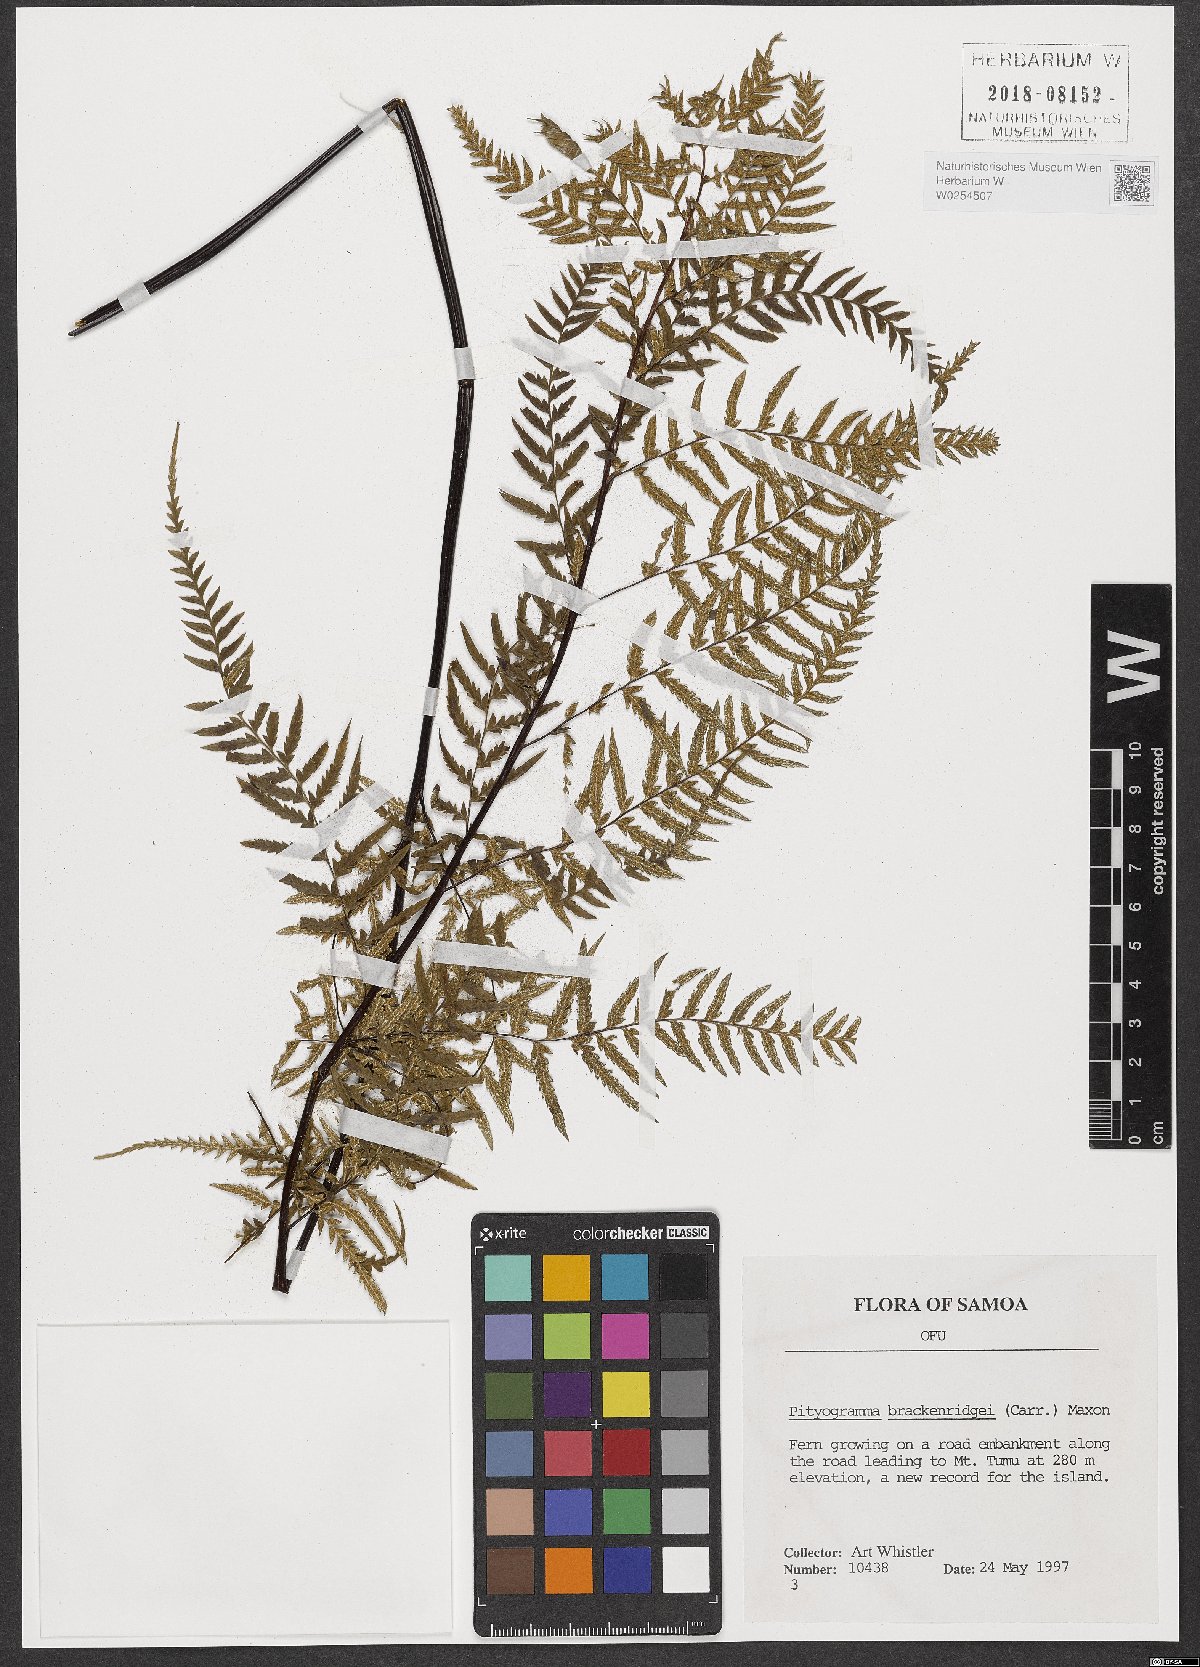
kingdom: Plantae
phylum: Tracheophyta
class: Polypodiopsida
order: Polypodiales
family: Pteridaceae
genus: Pityrogramma
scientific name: Pityrogramma chrysophylla
